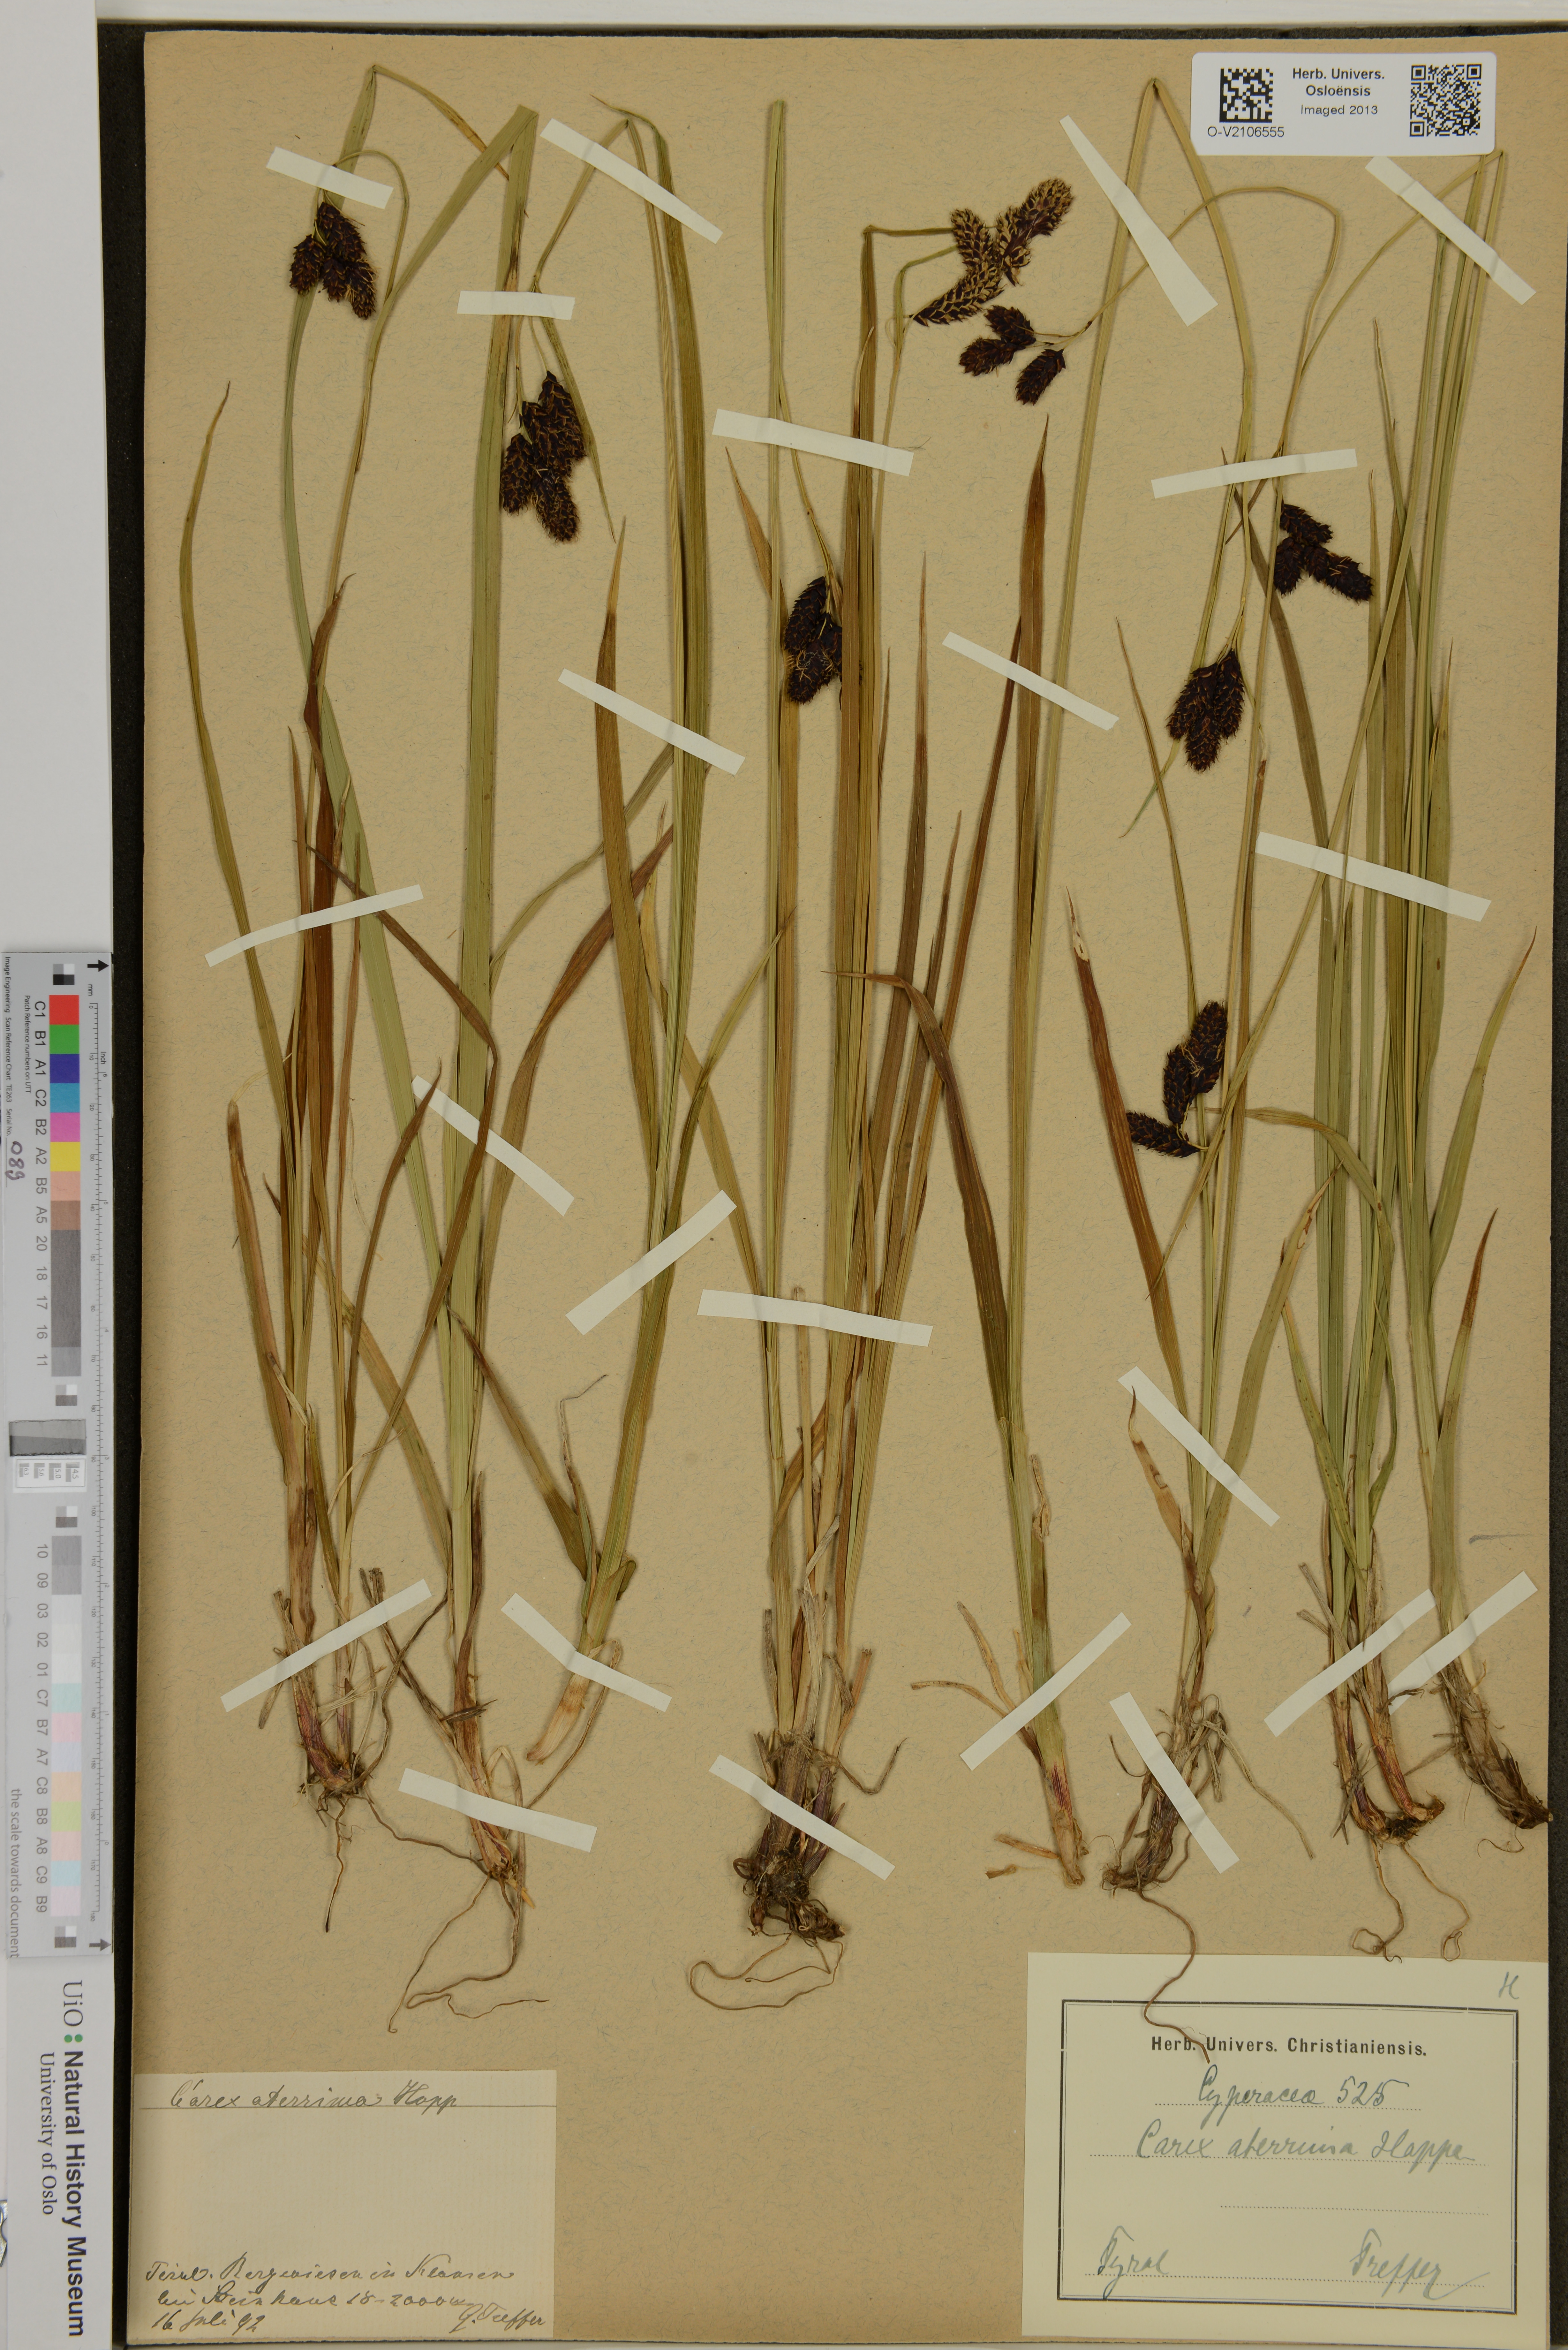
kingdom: Plantae
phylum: Tracheophyta
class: Liliopsida
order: Poales
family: Cyperaceae
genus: Carex
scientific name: Carex aterrima
